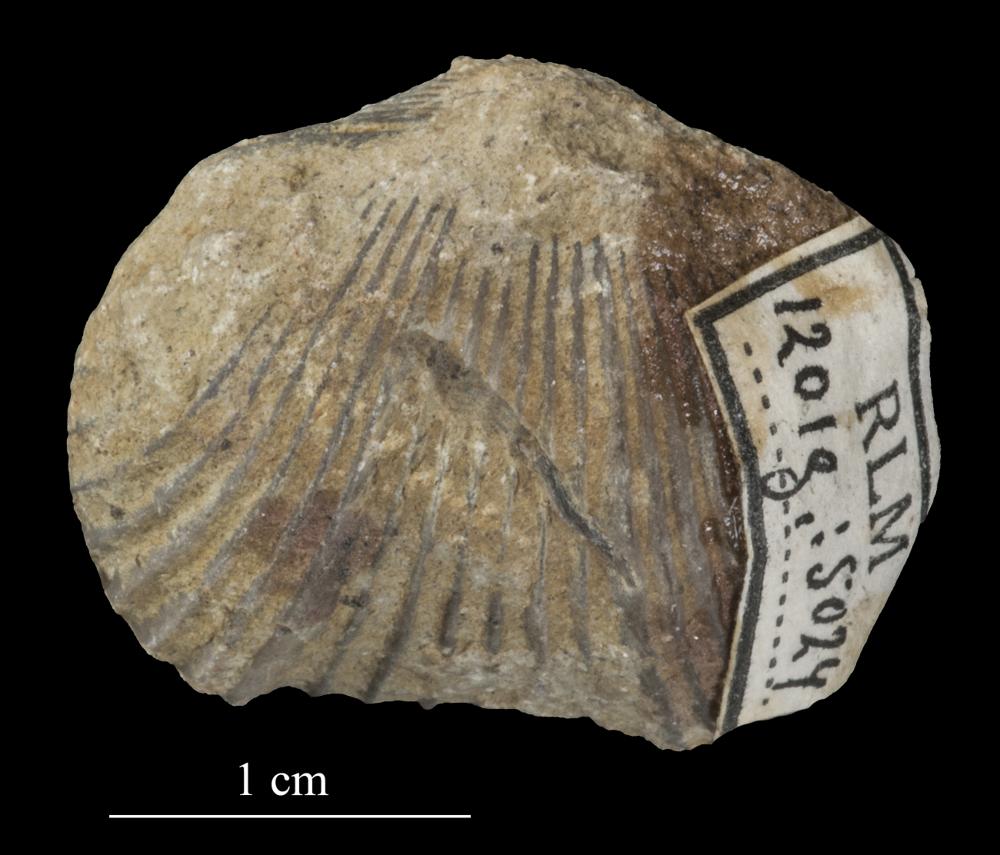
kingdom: Animalia
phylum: Brachiopoda
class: Rhynchonellata
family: Plectorthidae
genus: Platystrophia
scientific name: Platystrophia Terebratulites biforatus
